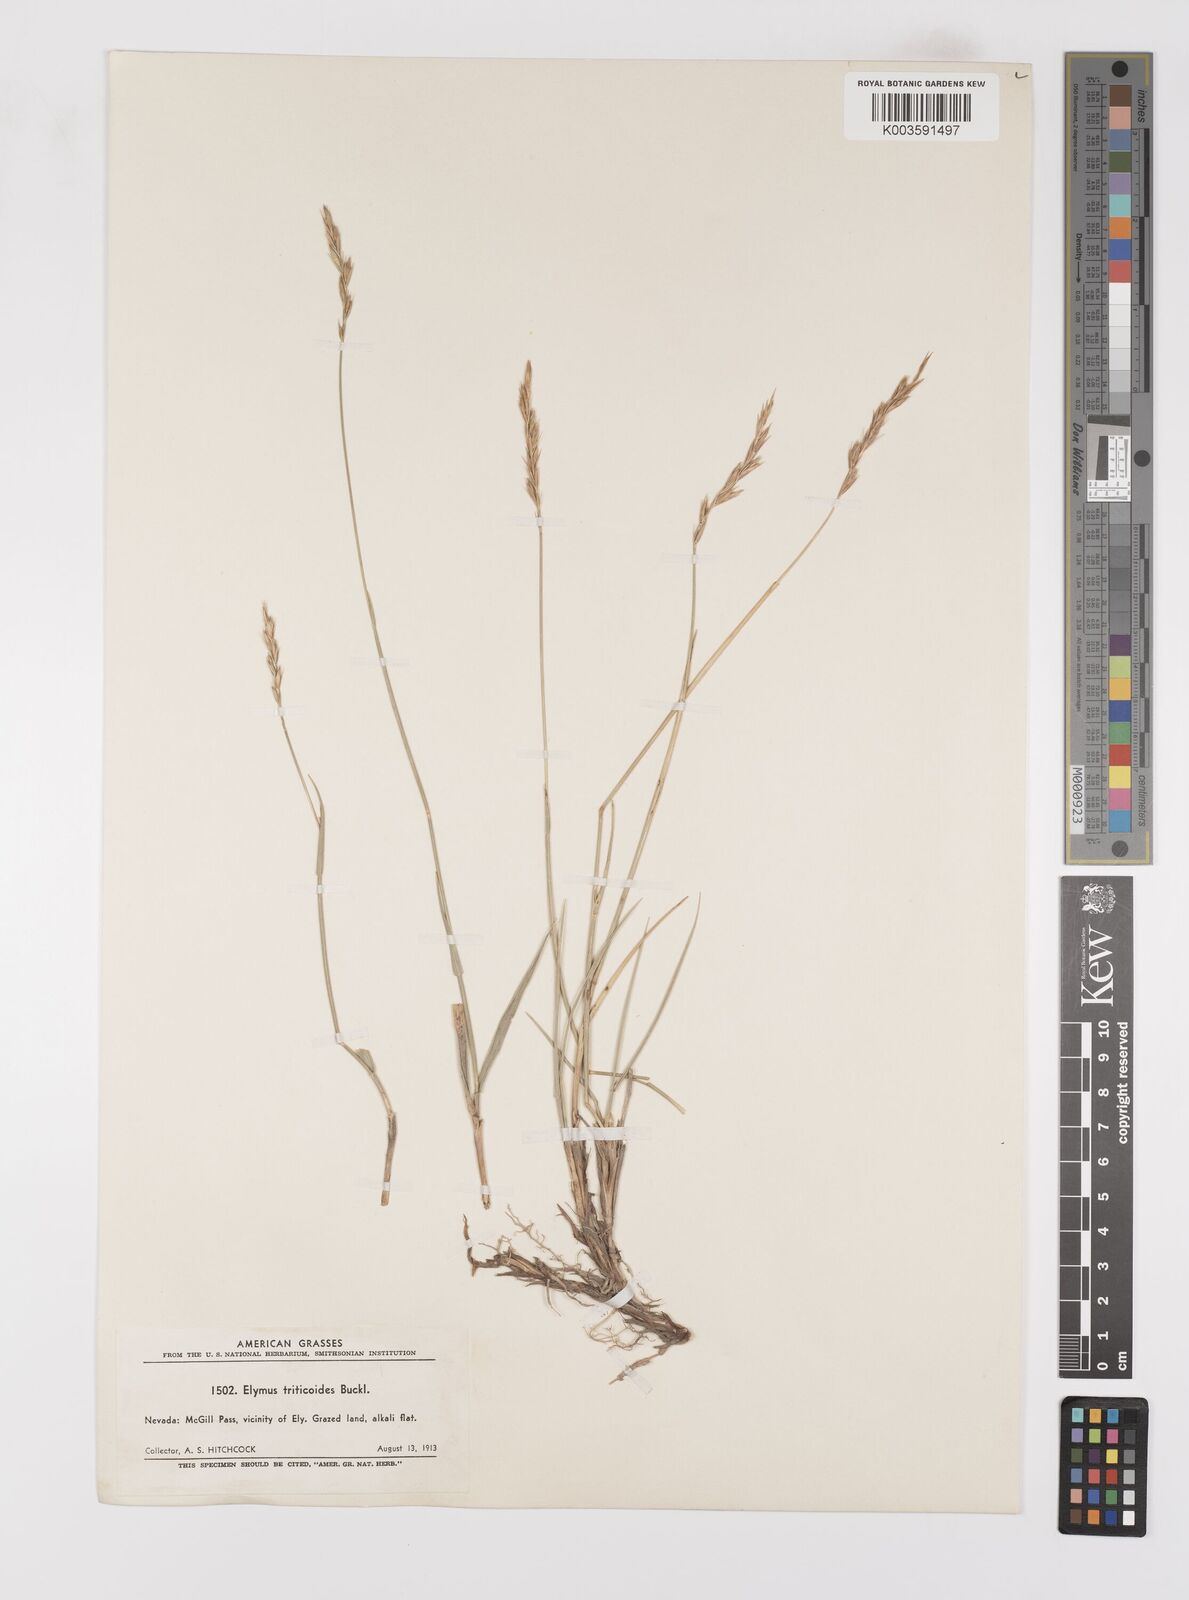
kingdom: Plantae
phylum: Tracheophyta
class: Liliopsida
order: Poales
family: Poaceae
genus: Leymus
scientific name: Leymus triticoides
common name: Beardless wild rye
